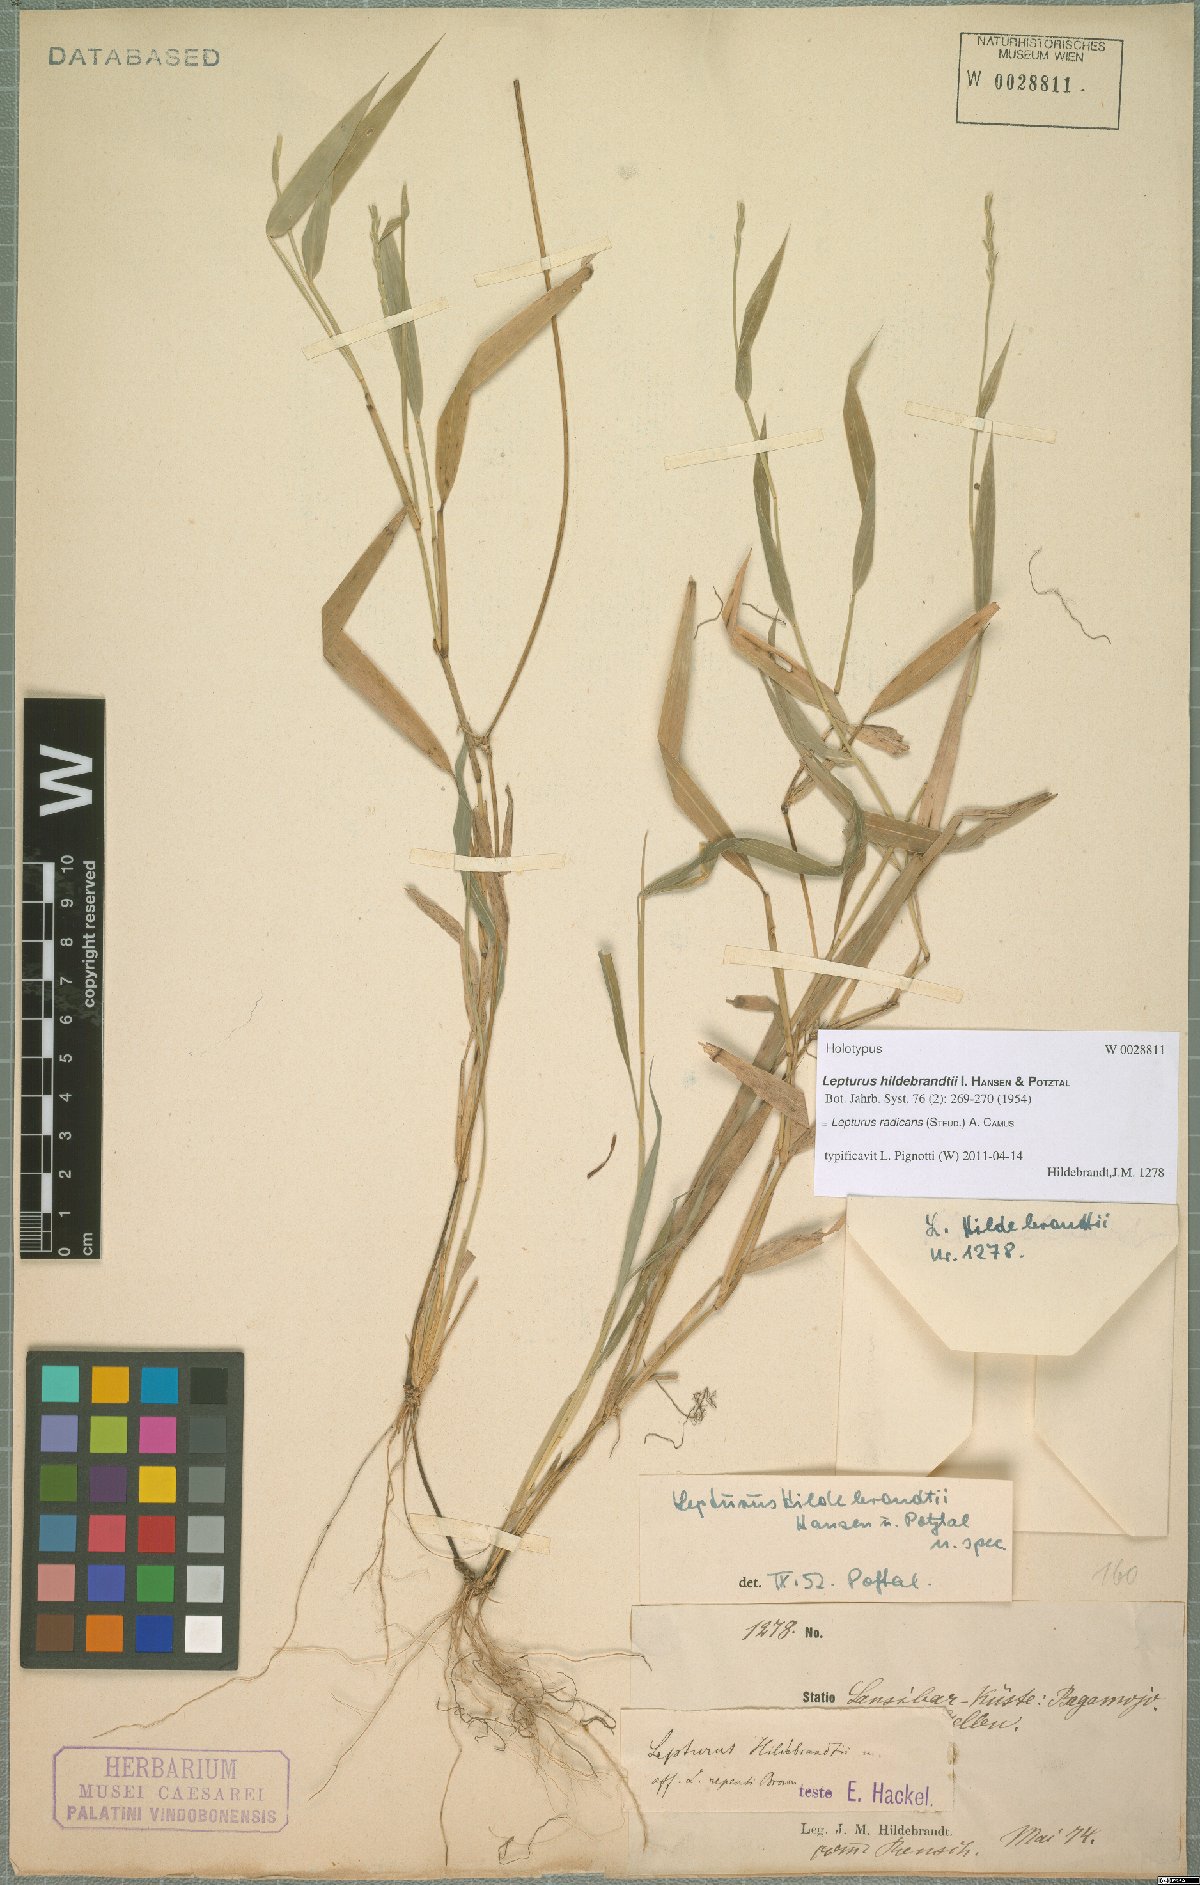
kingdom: Plantae
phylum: Tracheophyta
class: Liliopsida
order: Poales
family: Poaceae
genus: Lepturus
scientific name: Lepturus radicans
